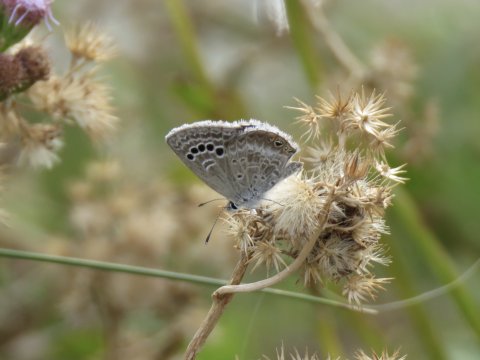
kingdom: Animalia
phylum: Arthropoda
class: Insecta
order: Lepidoptera
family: Lycaenidae
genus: Echinargus
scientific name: Echinargus isola
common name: Reakirt's Blue
